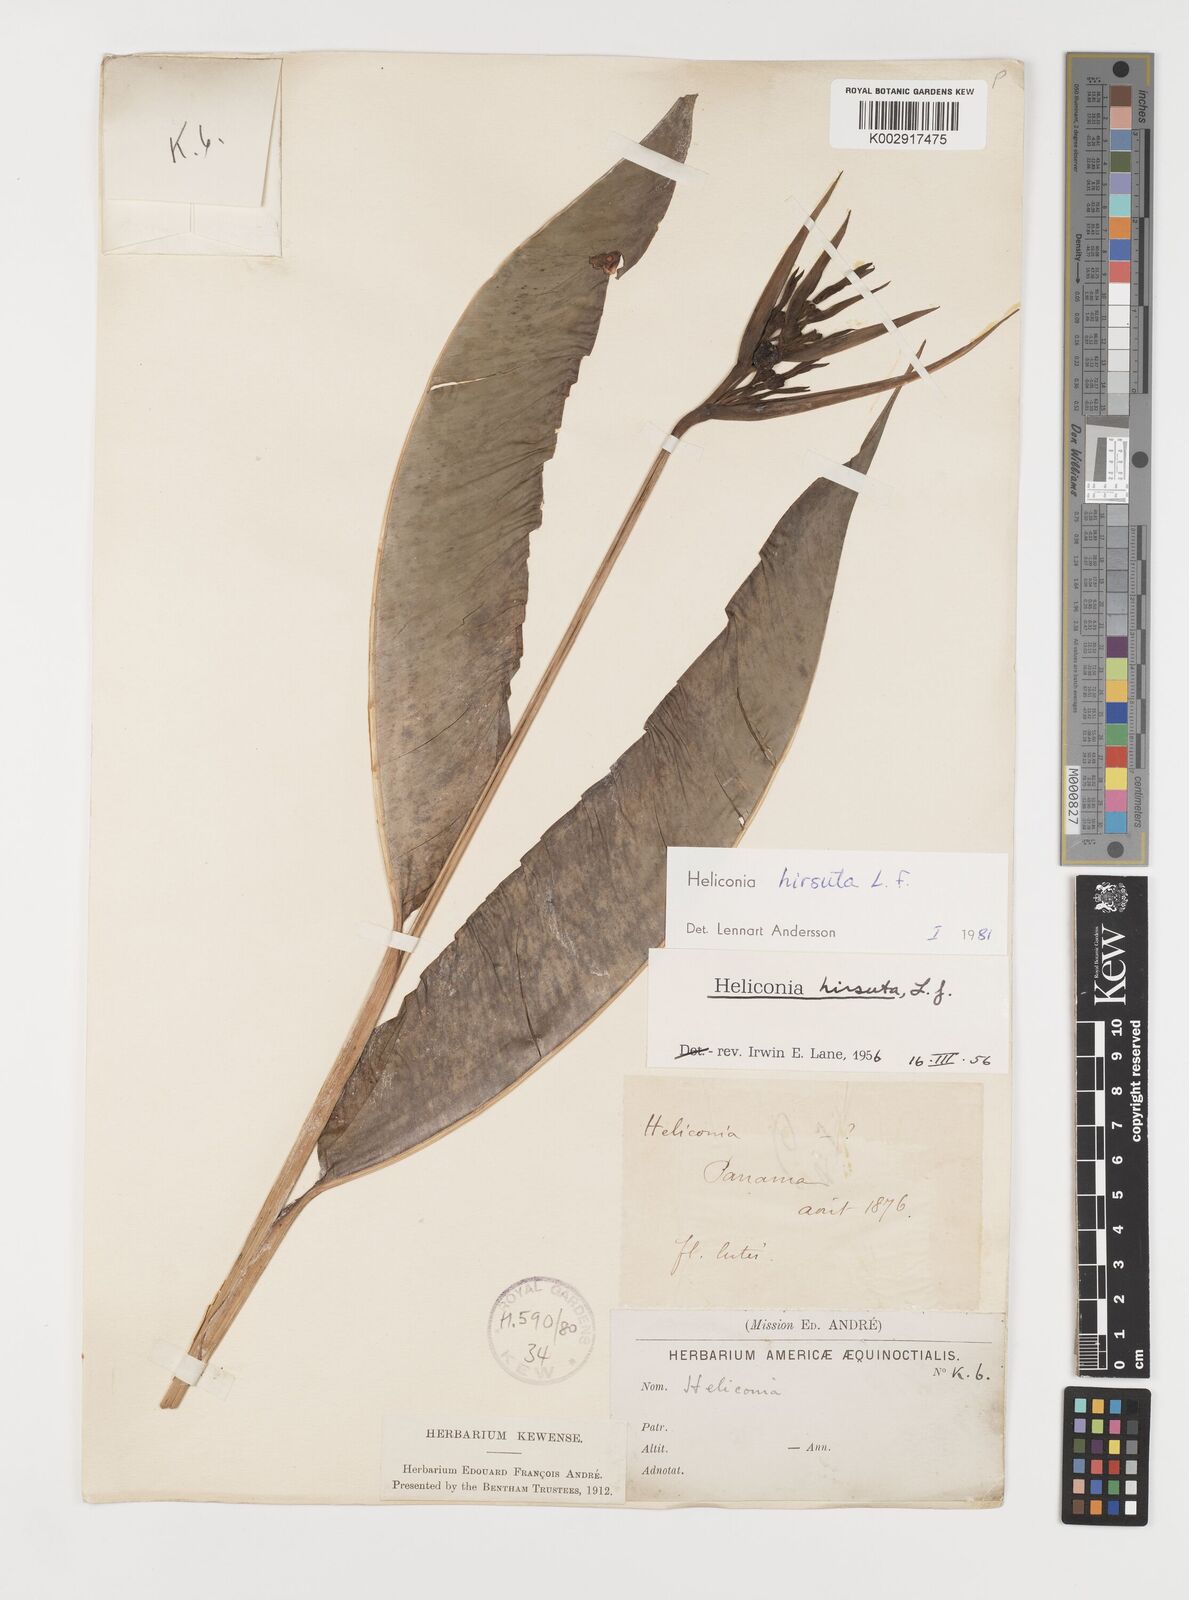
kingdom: Plantae
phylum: Tracheophyta
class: Liliopsida
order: Zingiberales
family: Heliconiaceae
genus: Heliconia
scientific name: Heliconia hirsuta
